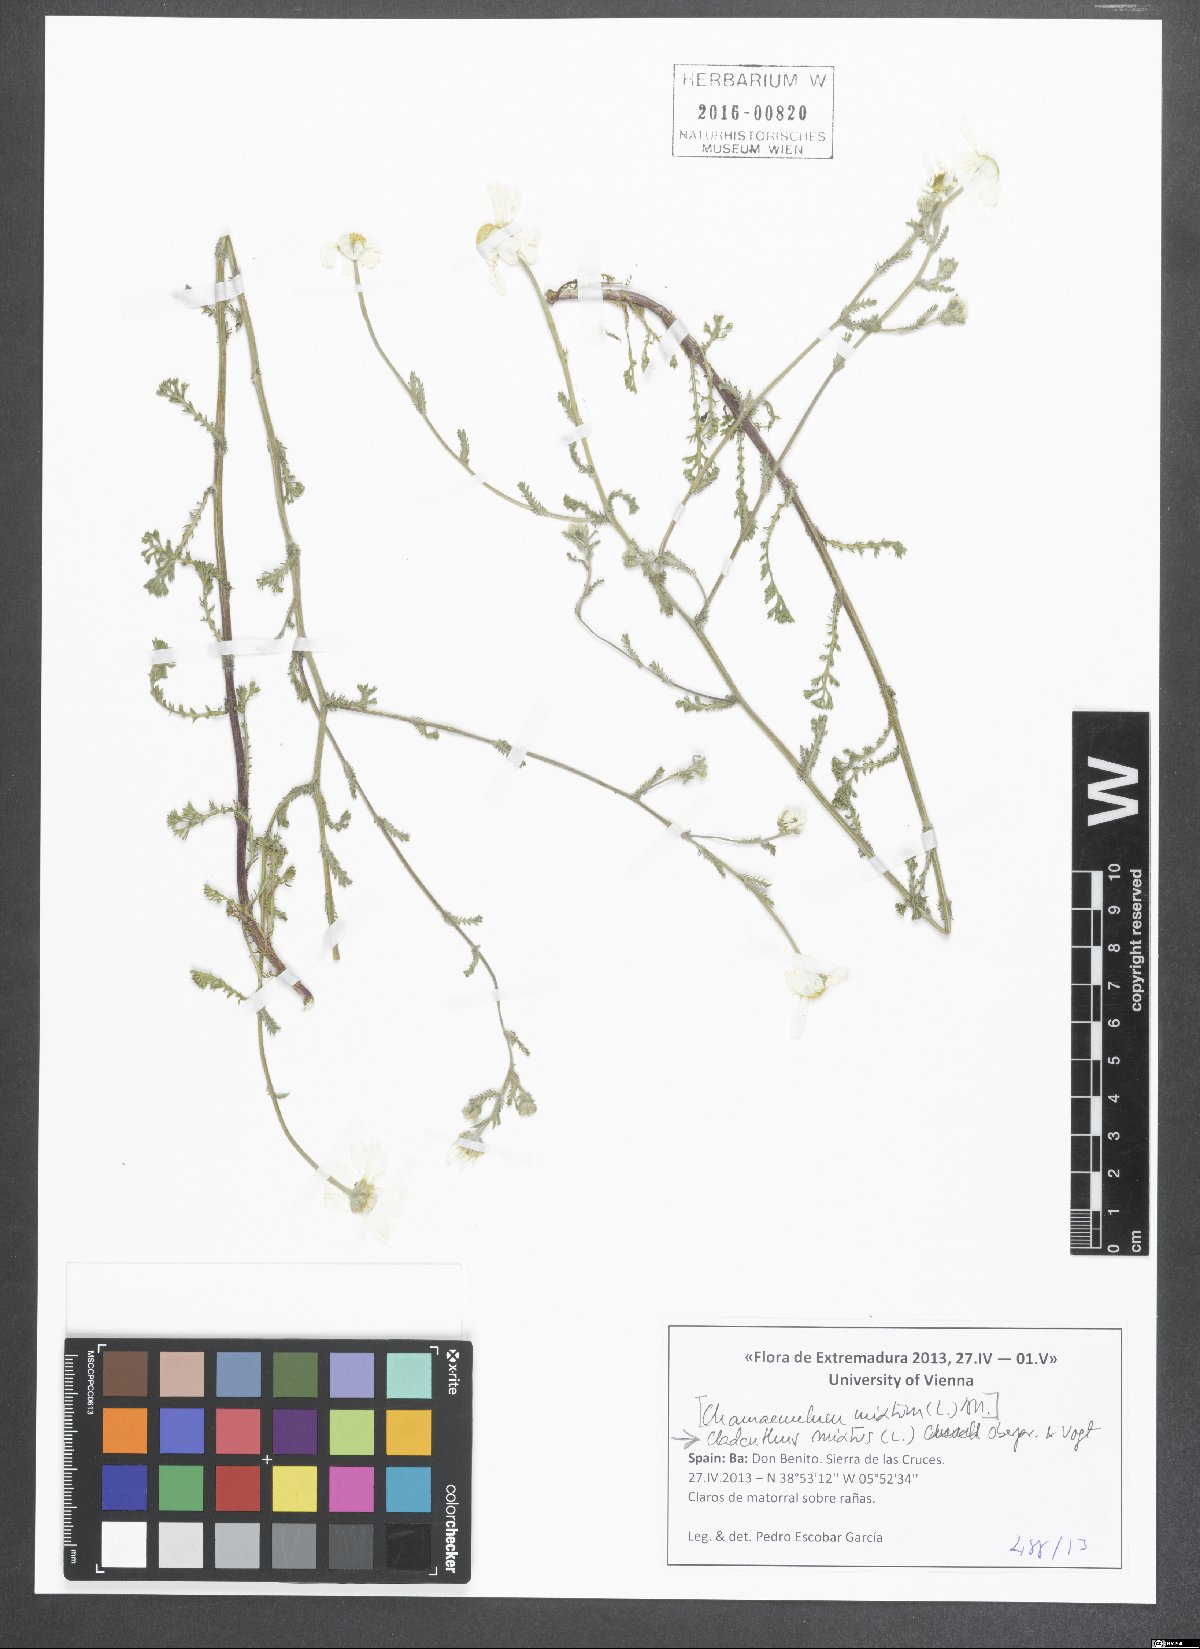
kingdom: Plantae
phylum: Tracheophyta
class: Magnoliopsida
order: Asterales
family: Asteraceae
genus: Cladanthus
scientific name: Cladanthus mixtus
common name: Weedy dogfennel
